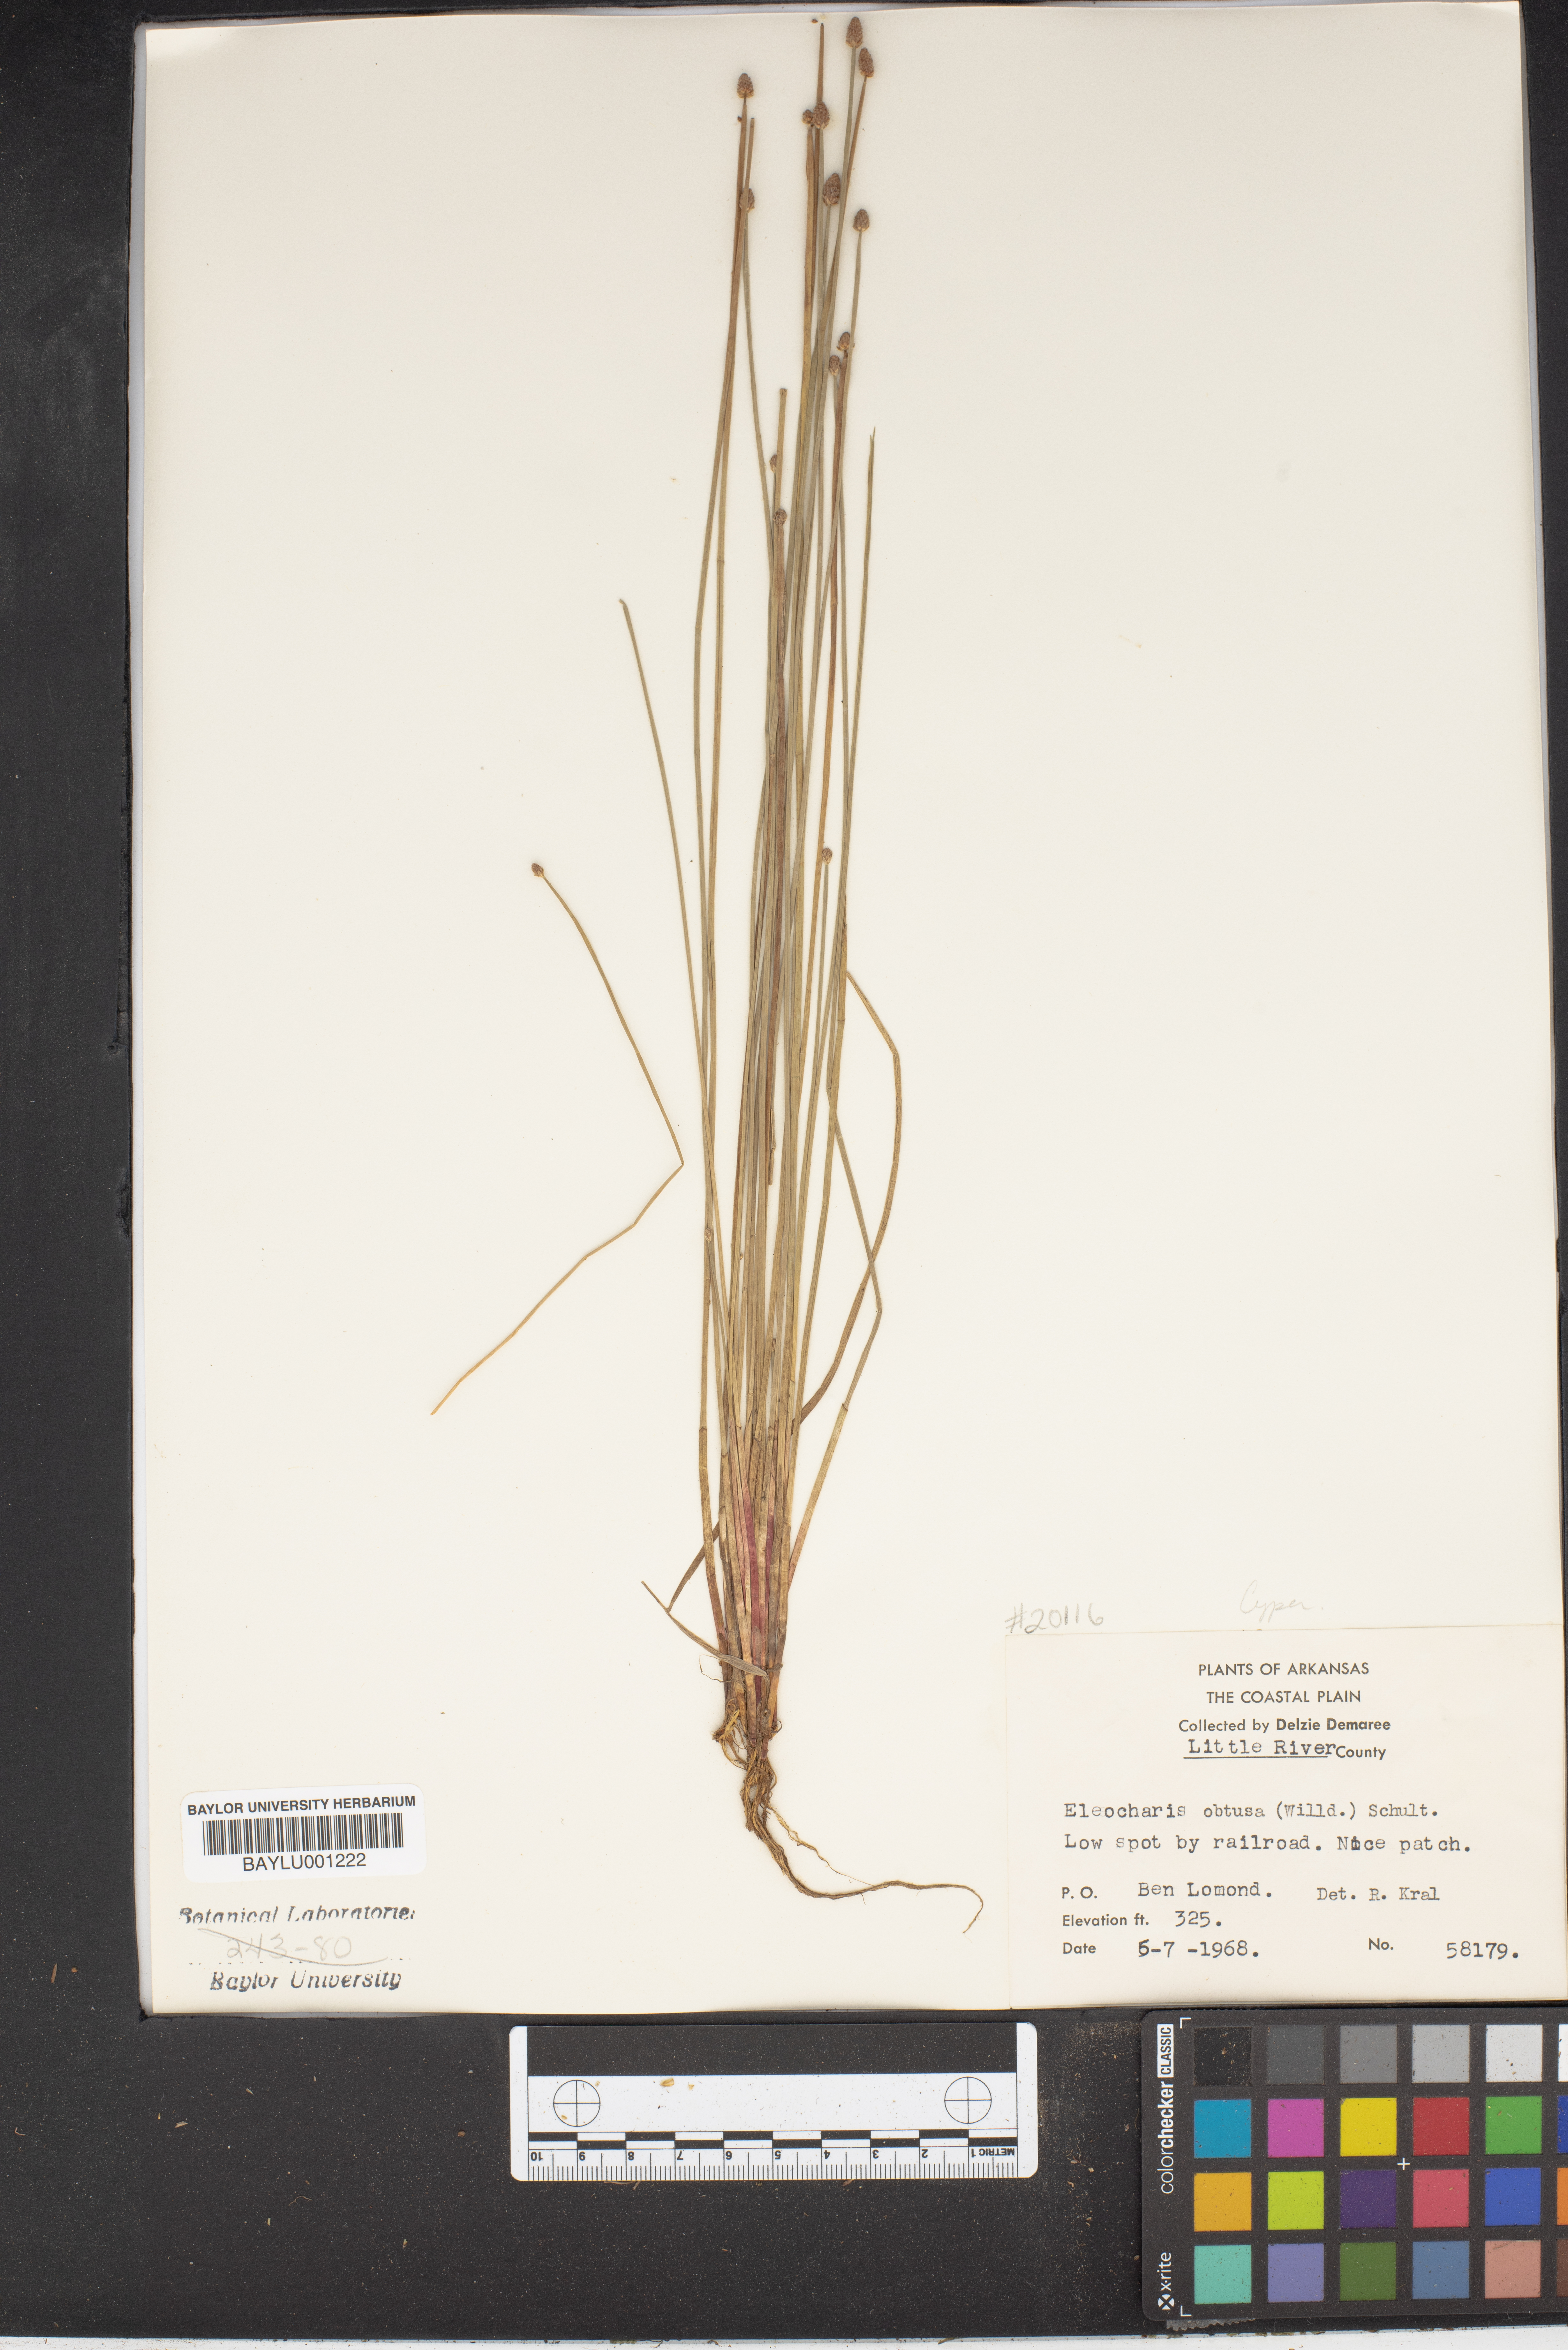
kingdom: Plantae
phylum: Tracheophyta
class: Liliopsida
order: Poales
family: Cyperaceae
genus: Eleocharis
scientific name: Eleocharis obtusa
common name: Blunt spikerush
